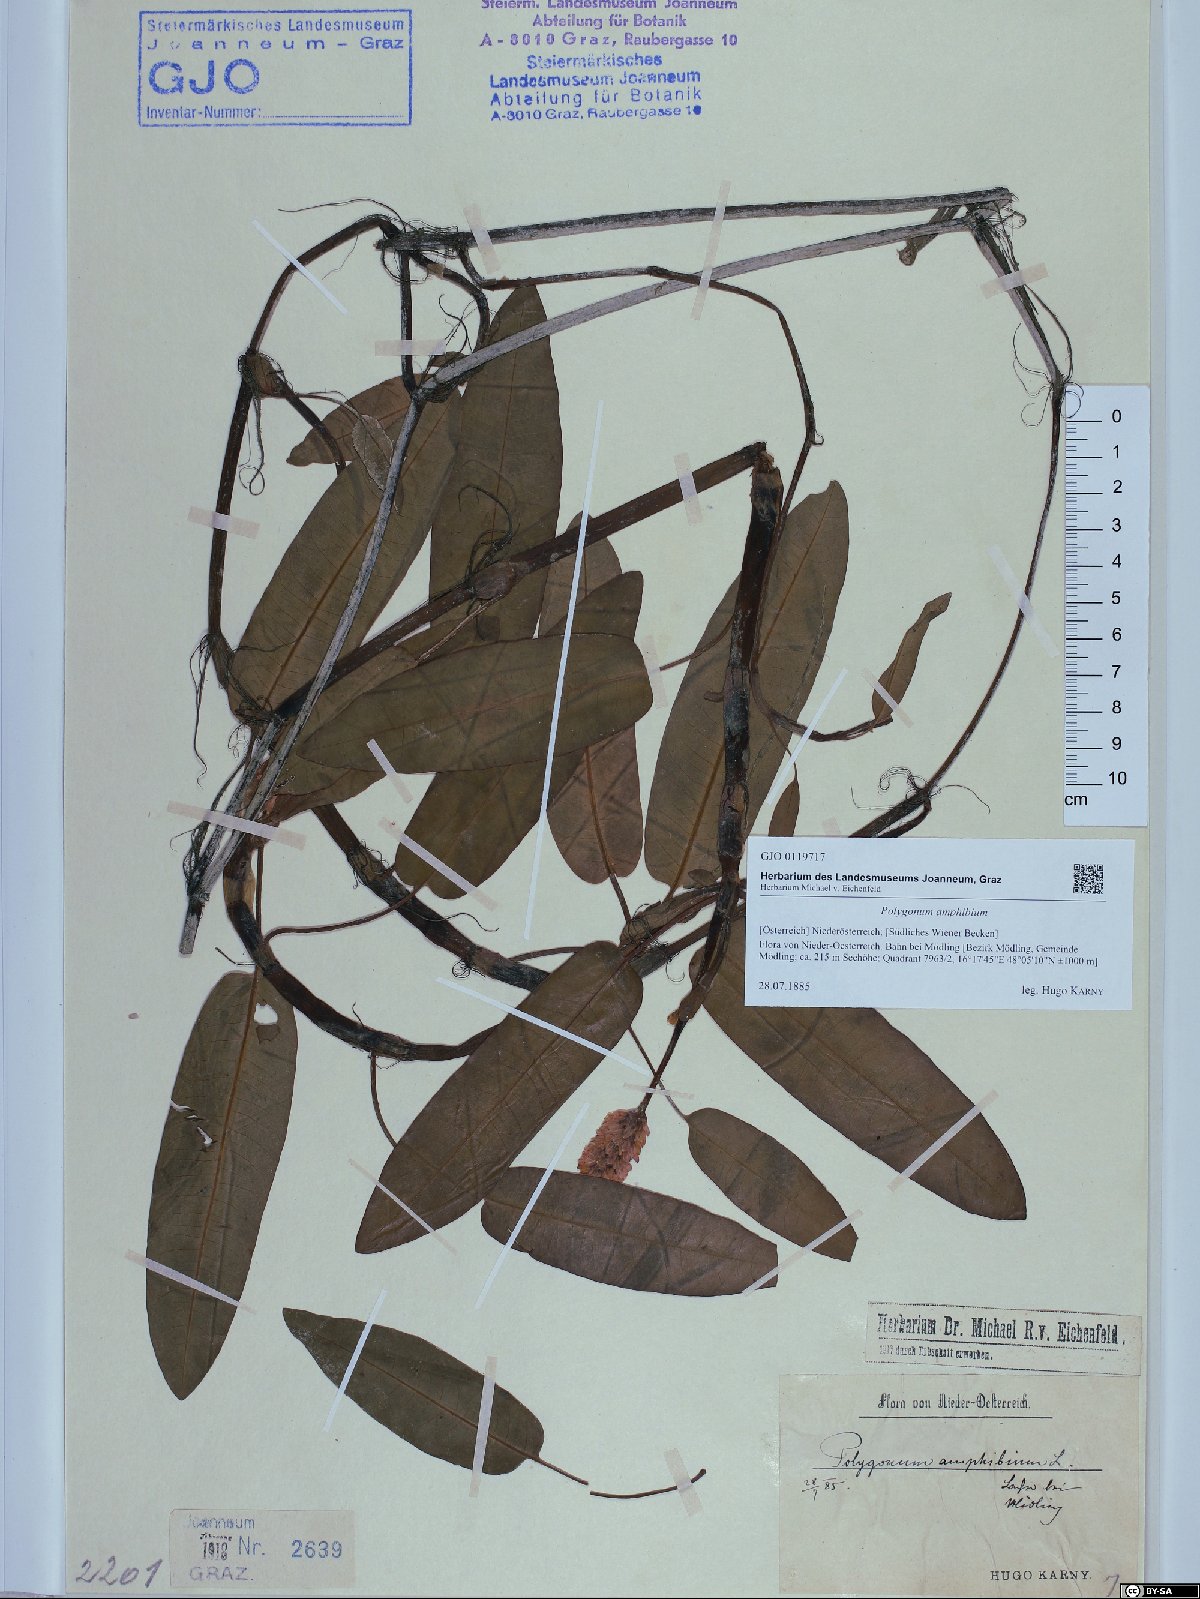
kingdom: Plantae
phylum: Tracheophyta
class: Magnoliopsida
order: Caryophyllales
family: Polygonaceae
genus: Persicaria
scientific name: Persicaria amphibia
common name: Amphibious bistort
